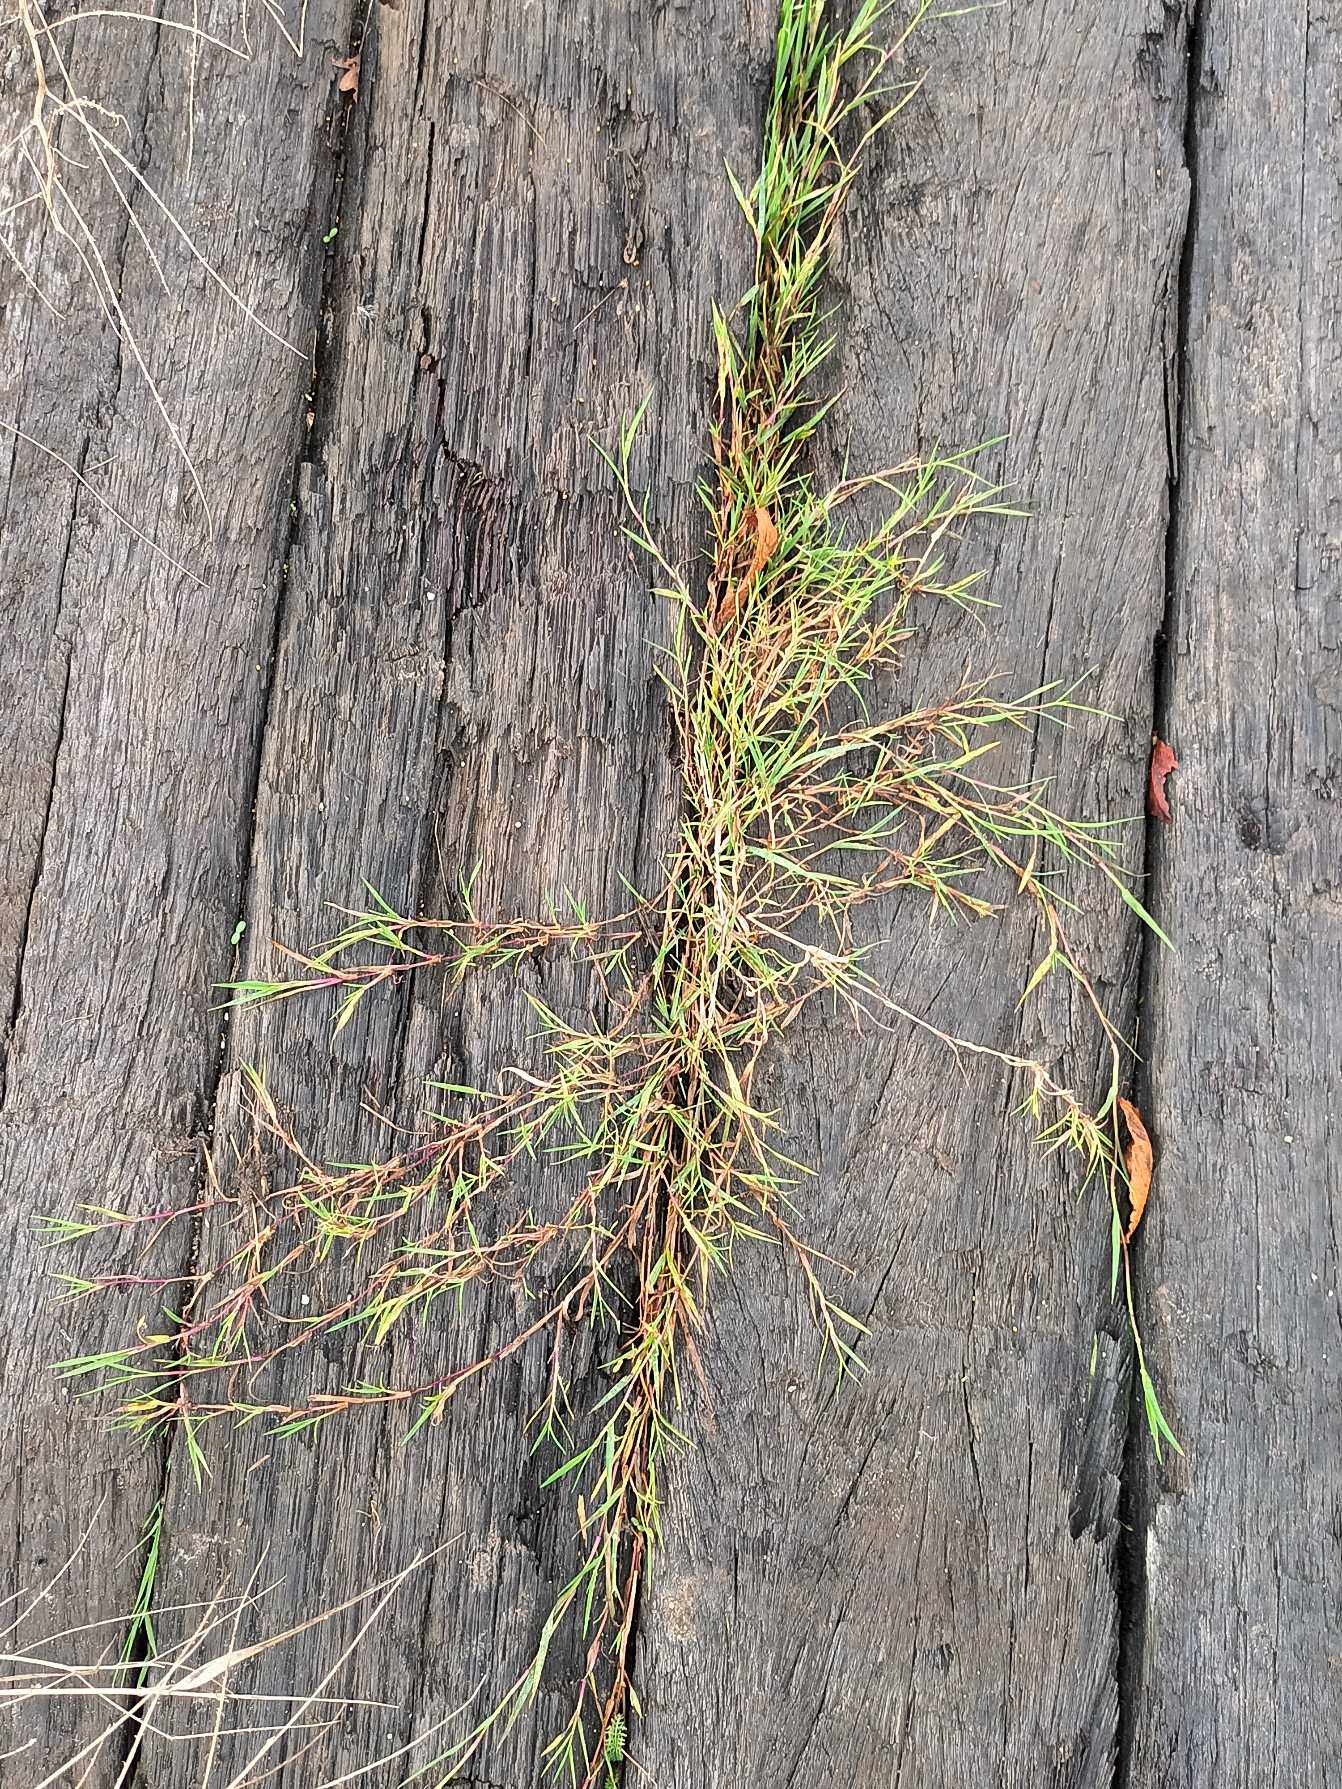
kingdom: Plantae
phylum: Tracheophyta
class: Liliopsida
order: Poales
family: Poaceae
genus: Agrostis
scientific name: Agrostis stolonifera
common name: Kryb-hvene
